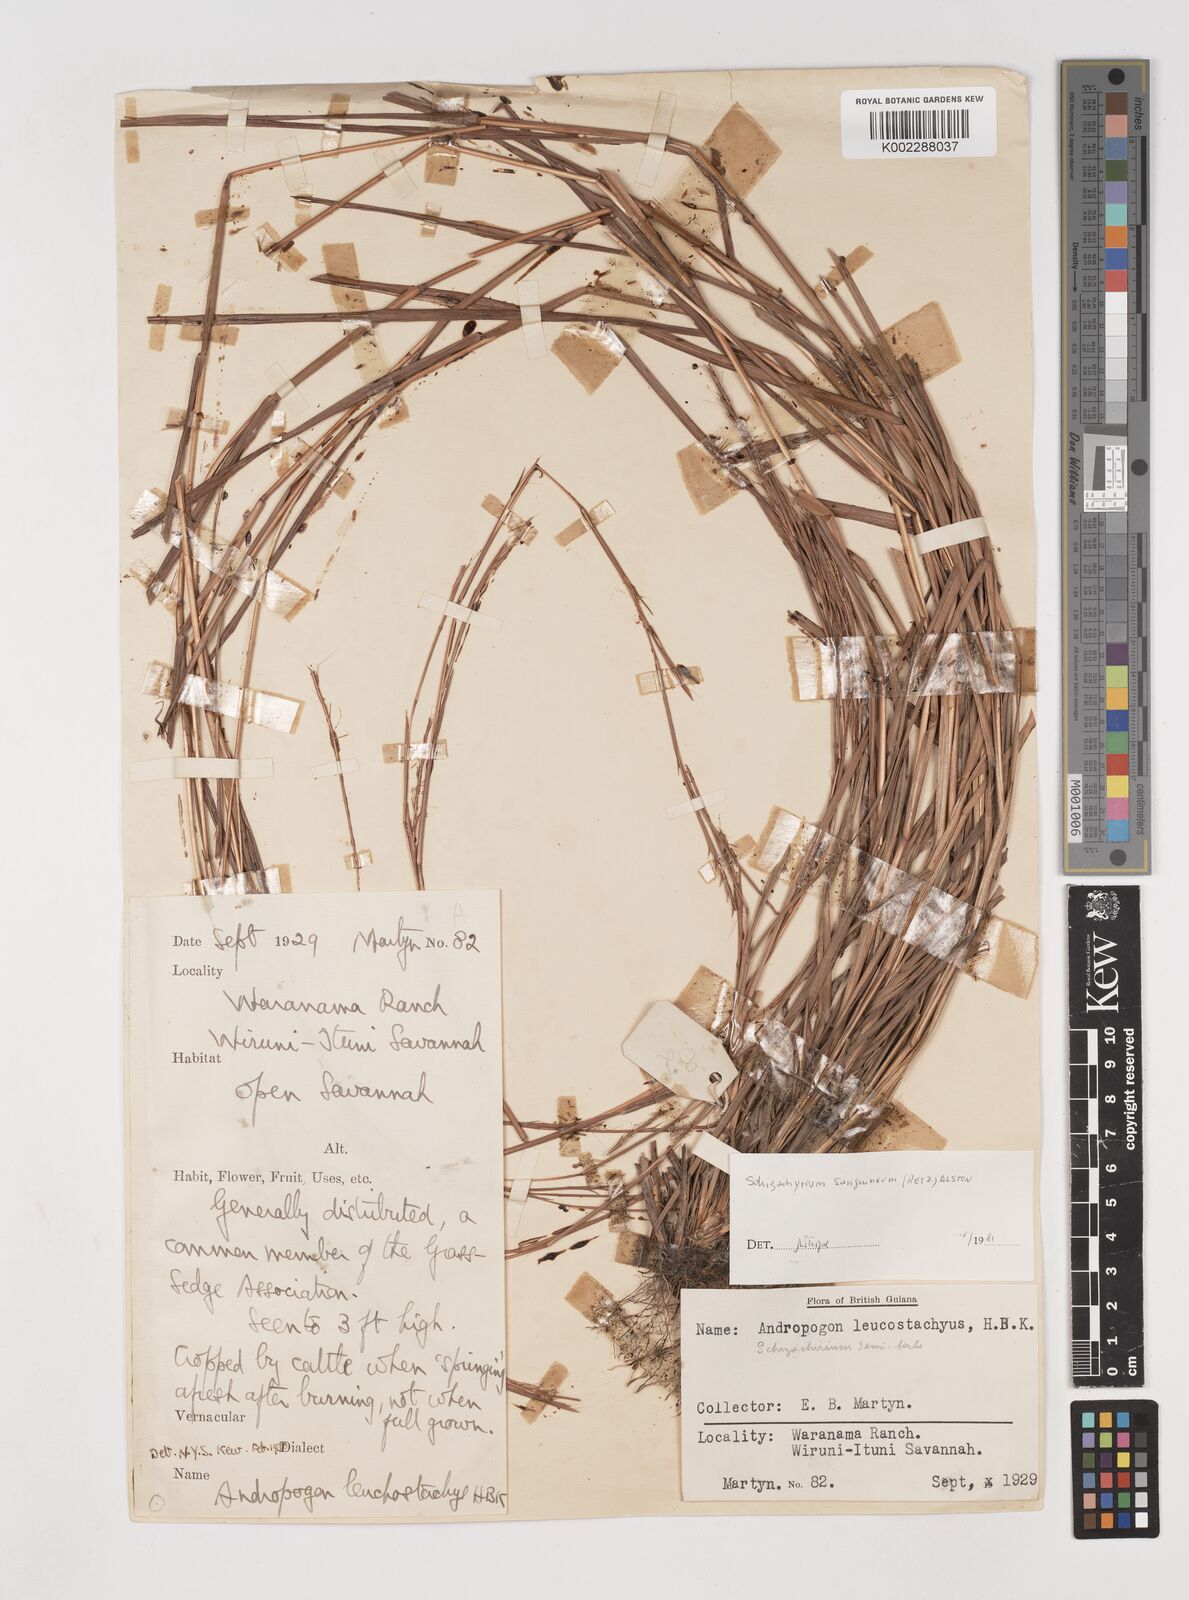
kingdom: Plantae
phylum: Tracheophyta
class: Liliopsida
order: Poales
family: Poaceae
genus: Schizachyrium
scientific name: Schizachyrium sanguineum
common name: Crimson bluestem
